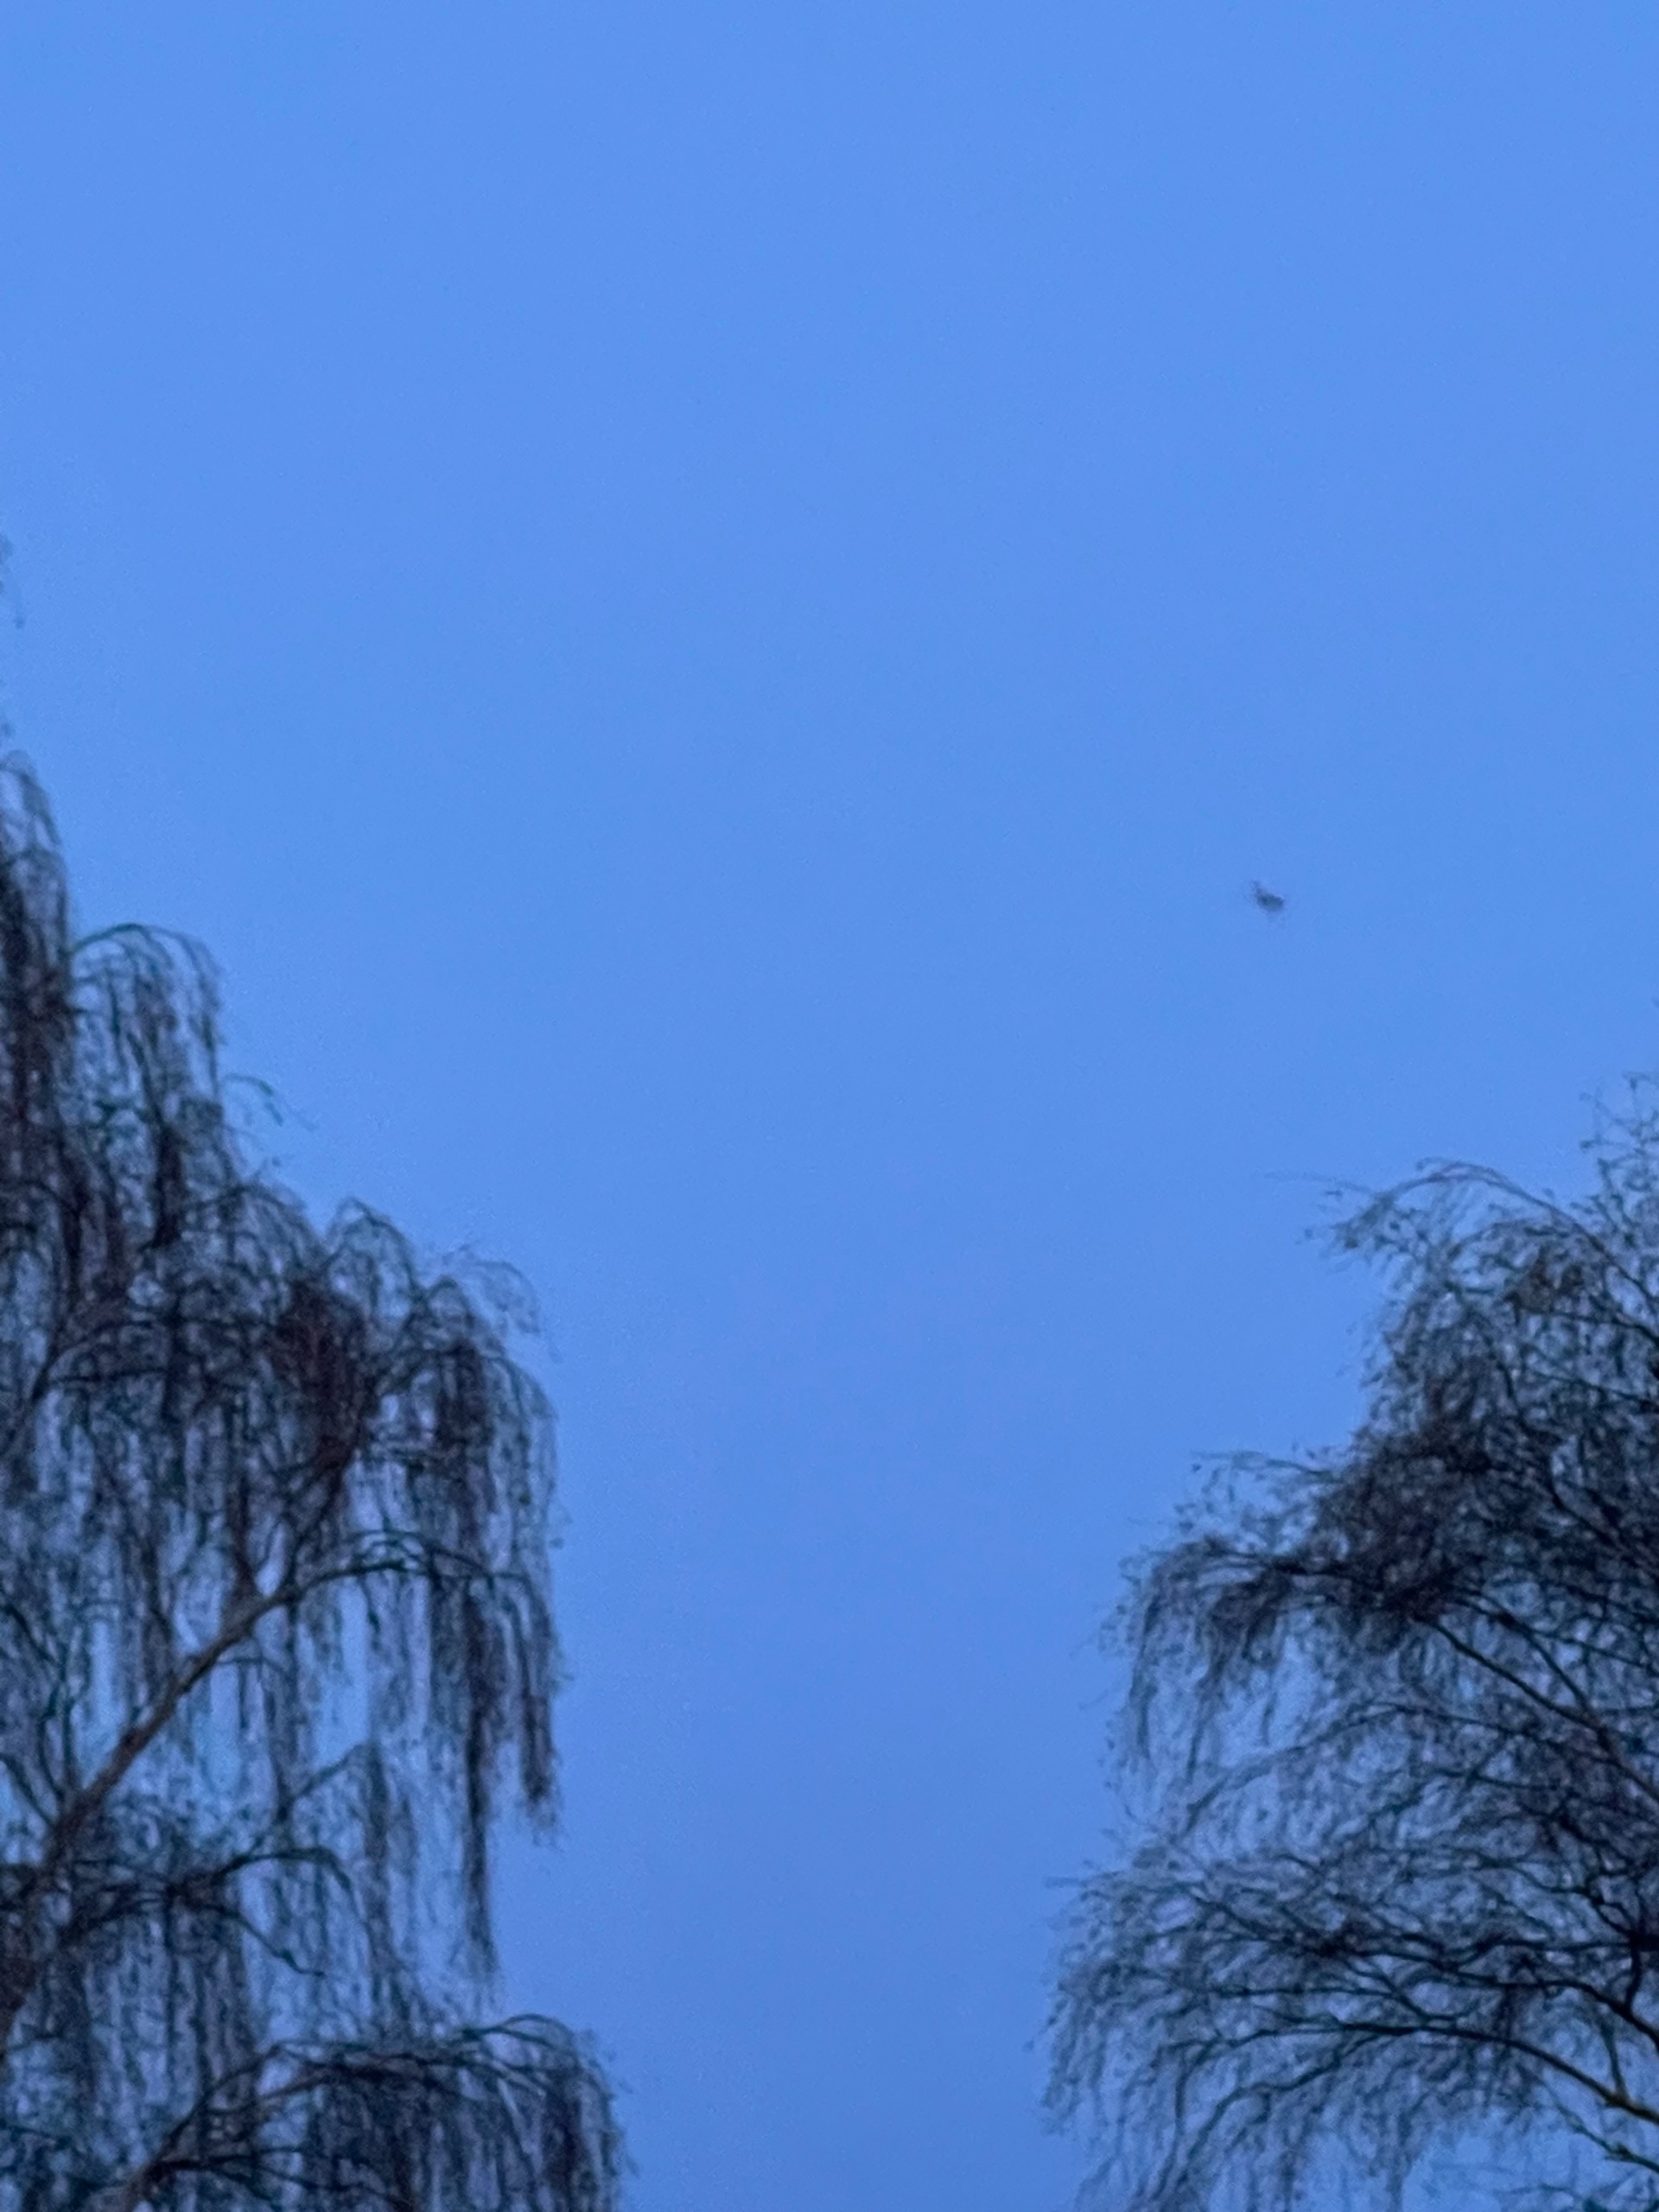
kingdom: Animalia
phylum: Chordata
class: Mammalia
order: Chiroptera
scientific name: Chiroptera
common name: Flagermus
